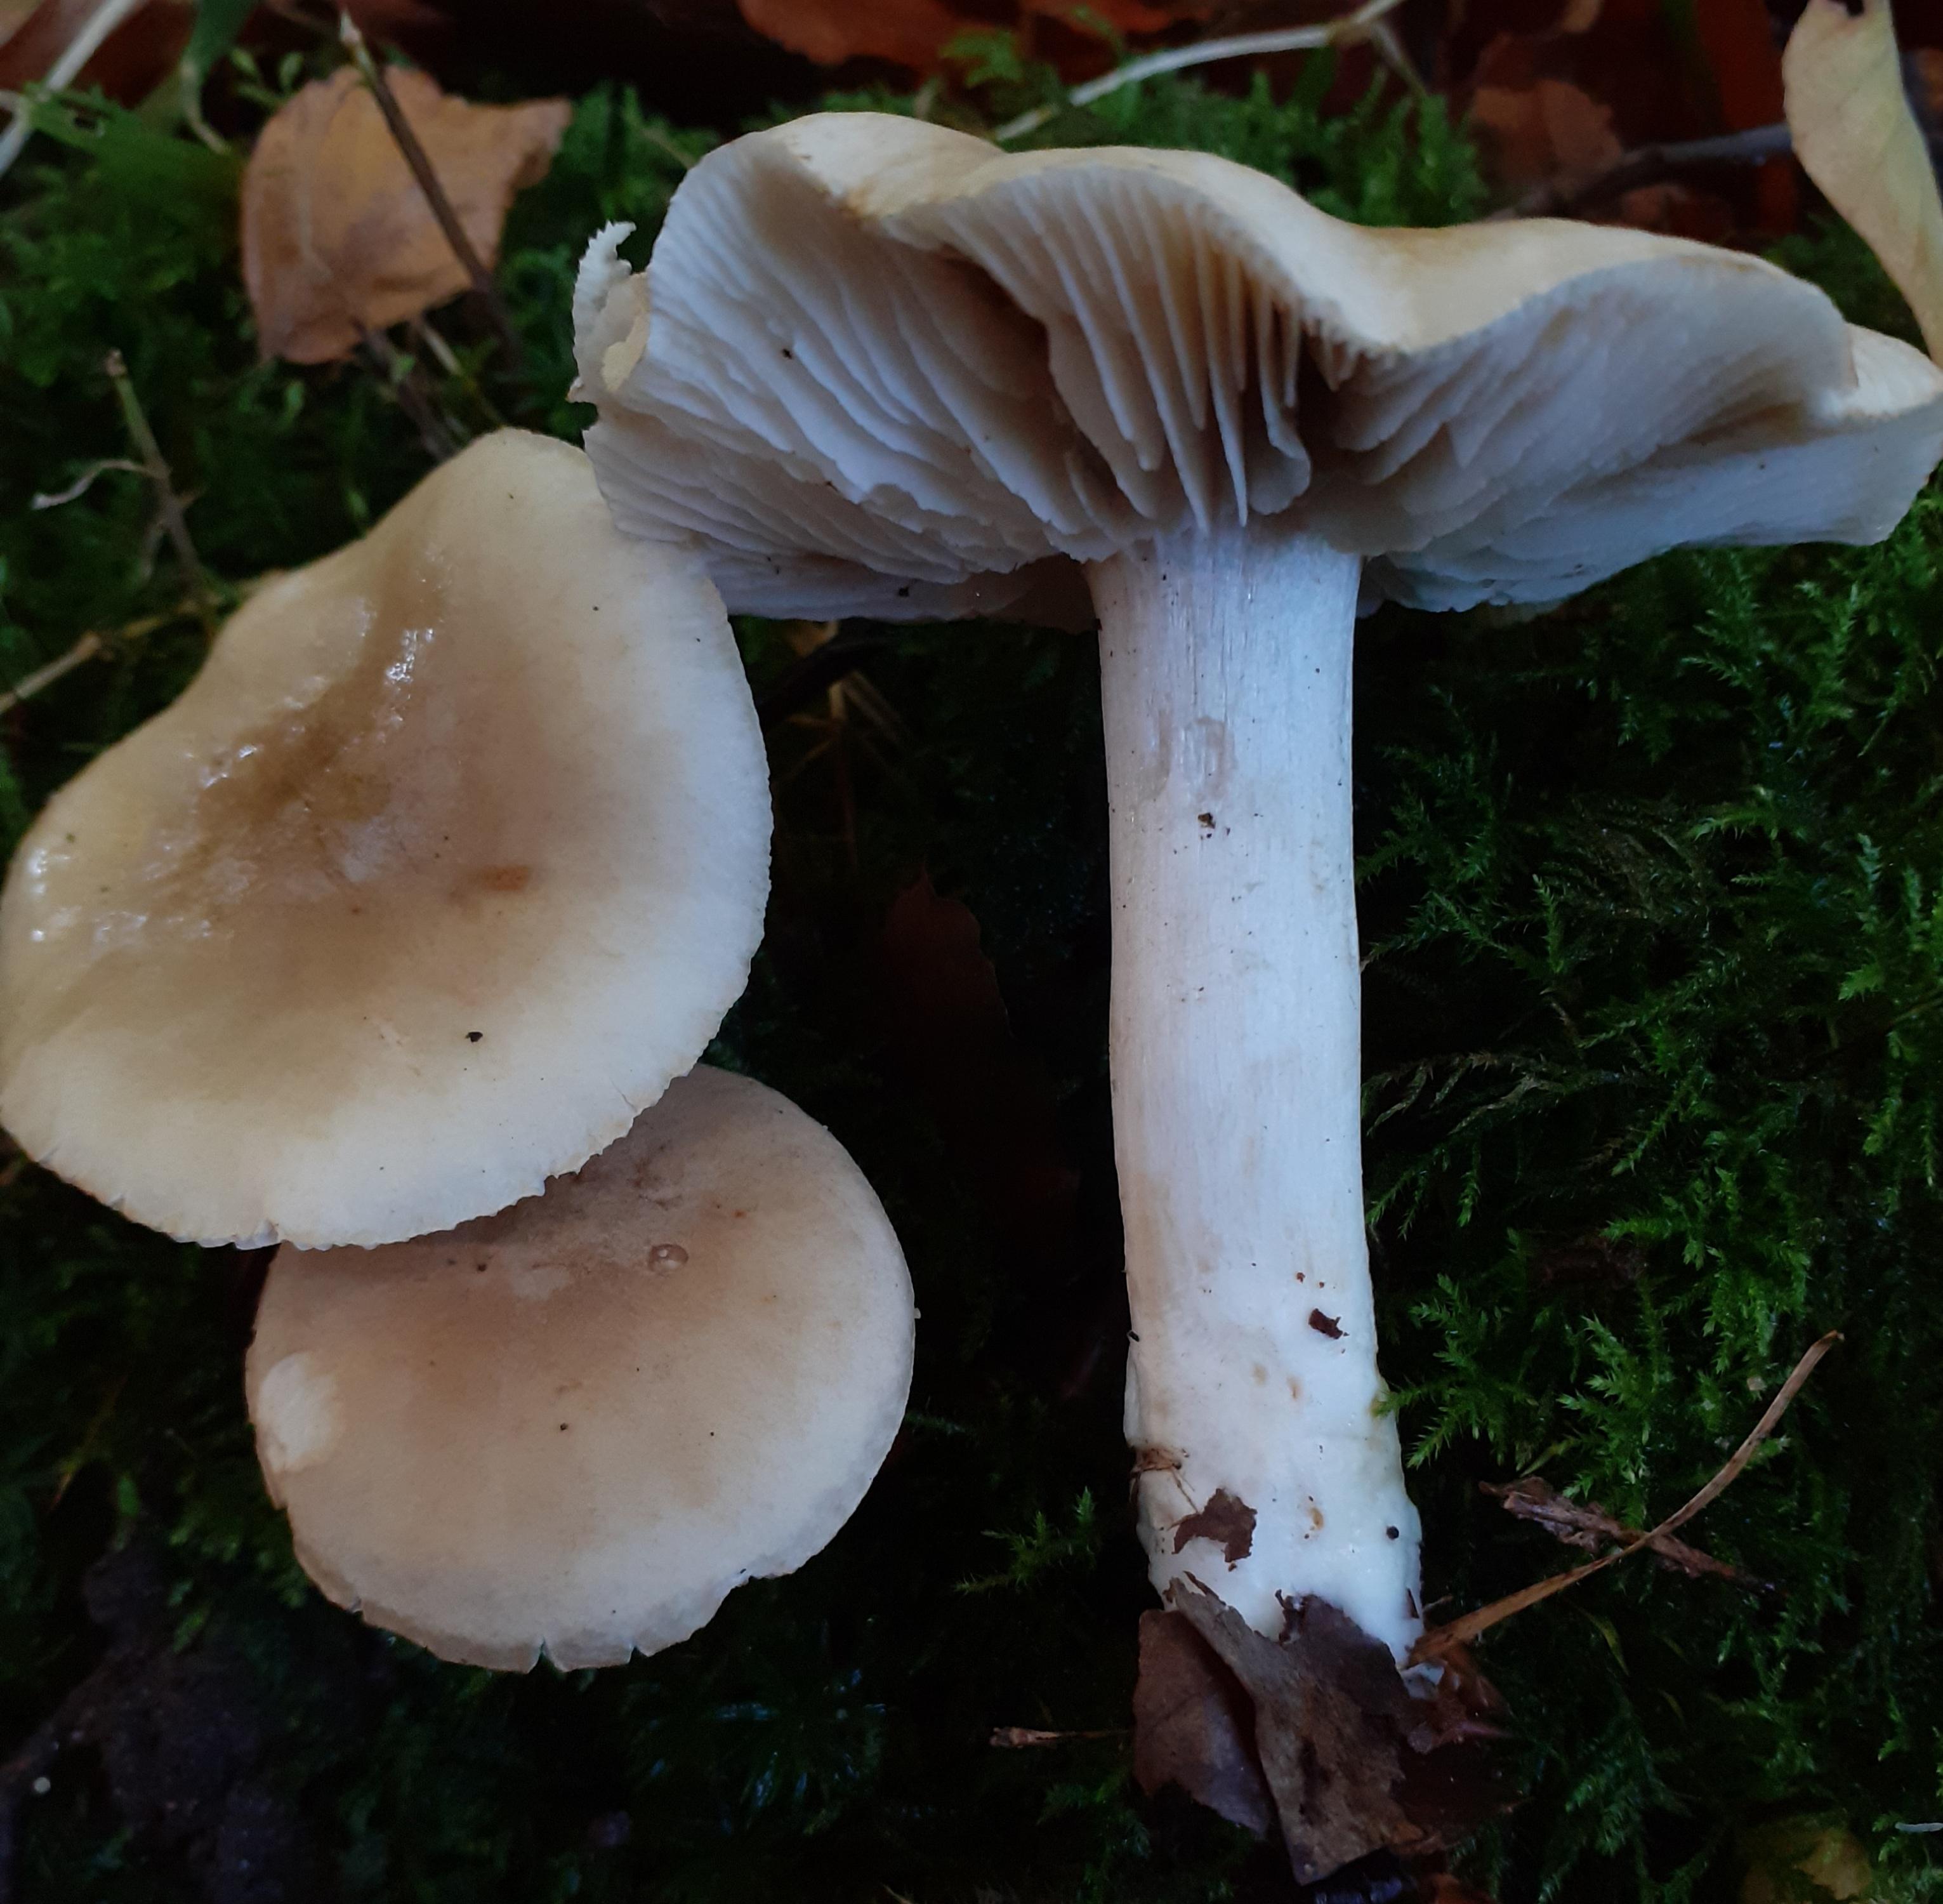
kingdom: Fungi
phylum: Basidiomycota
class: Agaricomycetes
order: Agaricales
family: Tricholomataceae
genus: Tricholoma
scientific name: Tricholoma lascivum
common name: stinkende ridderhat
